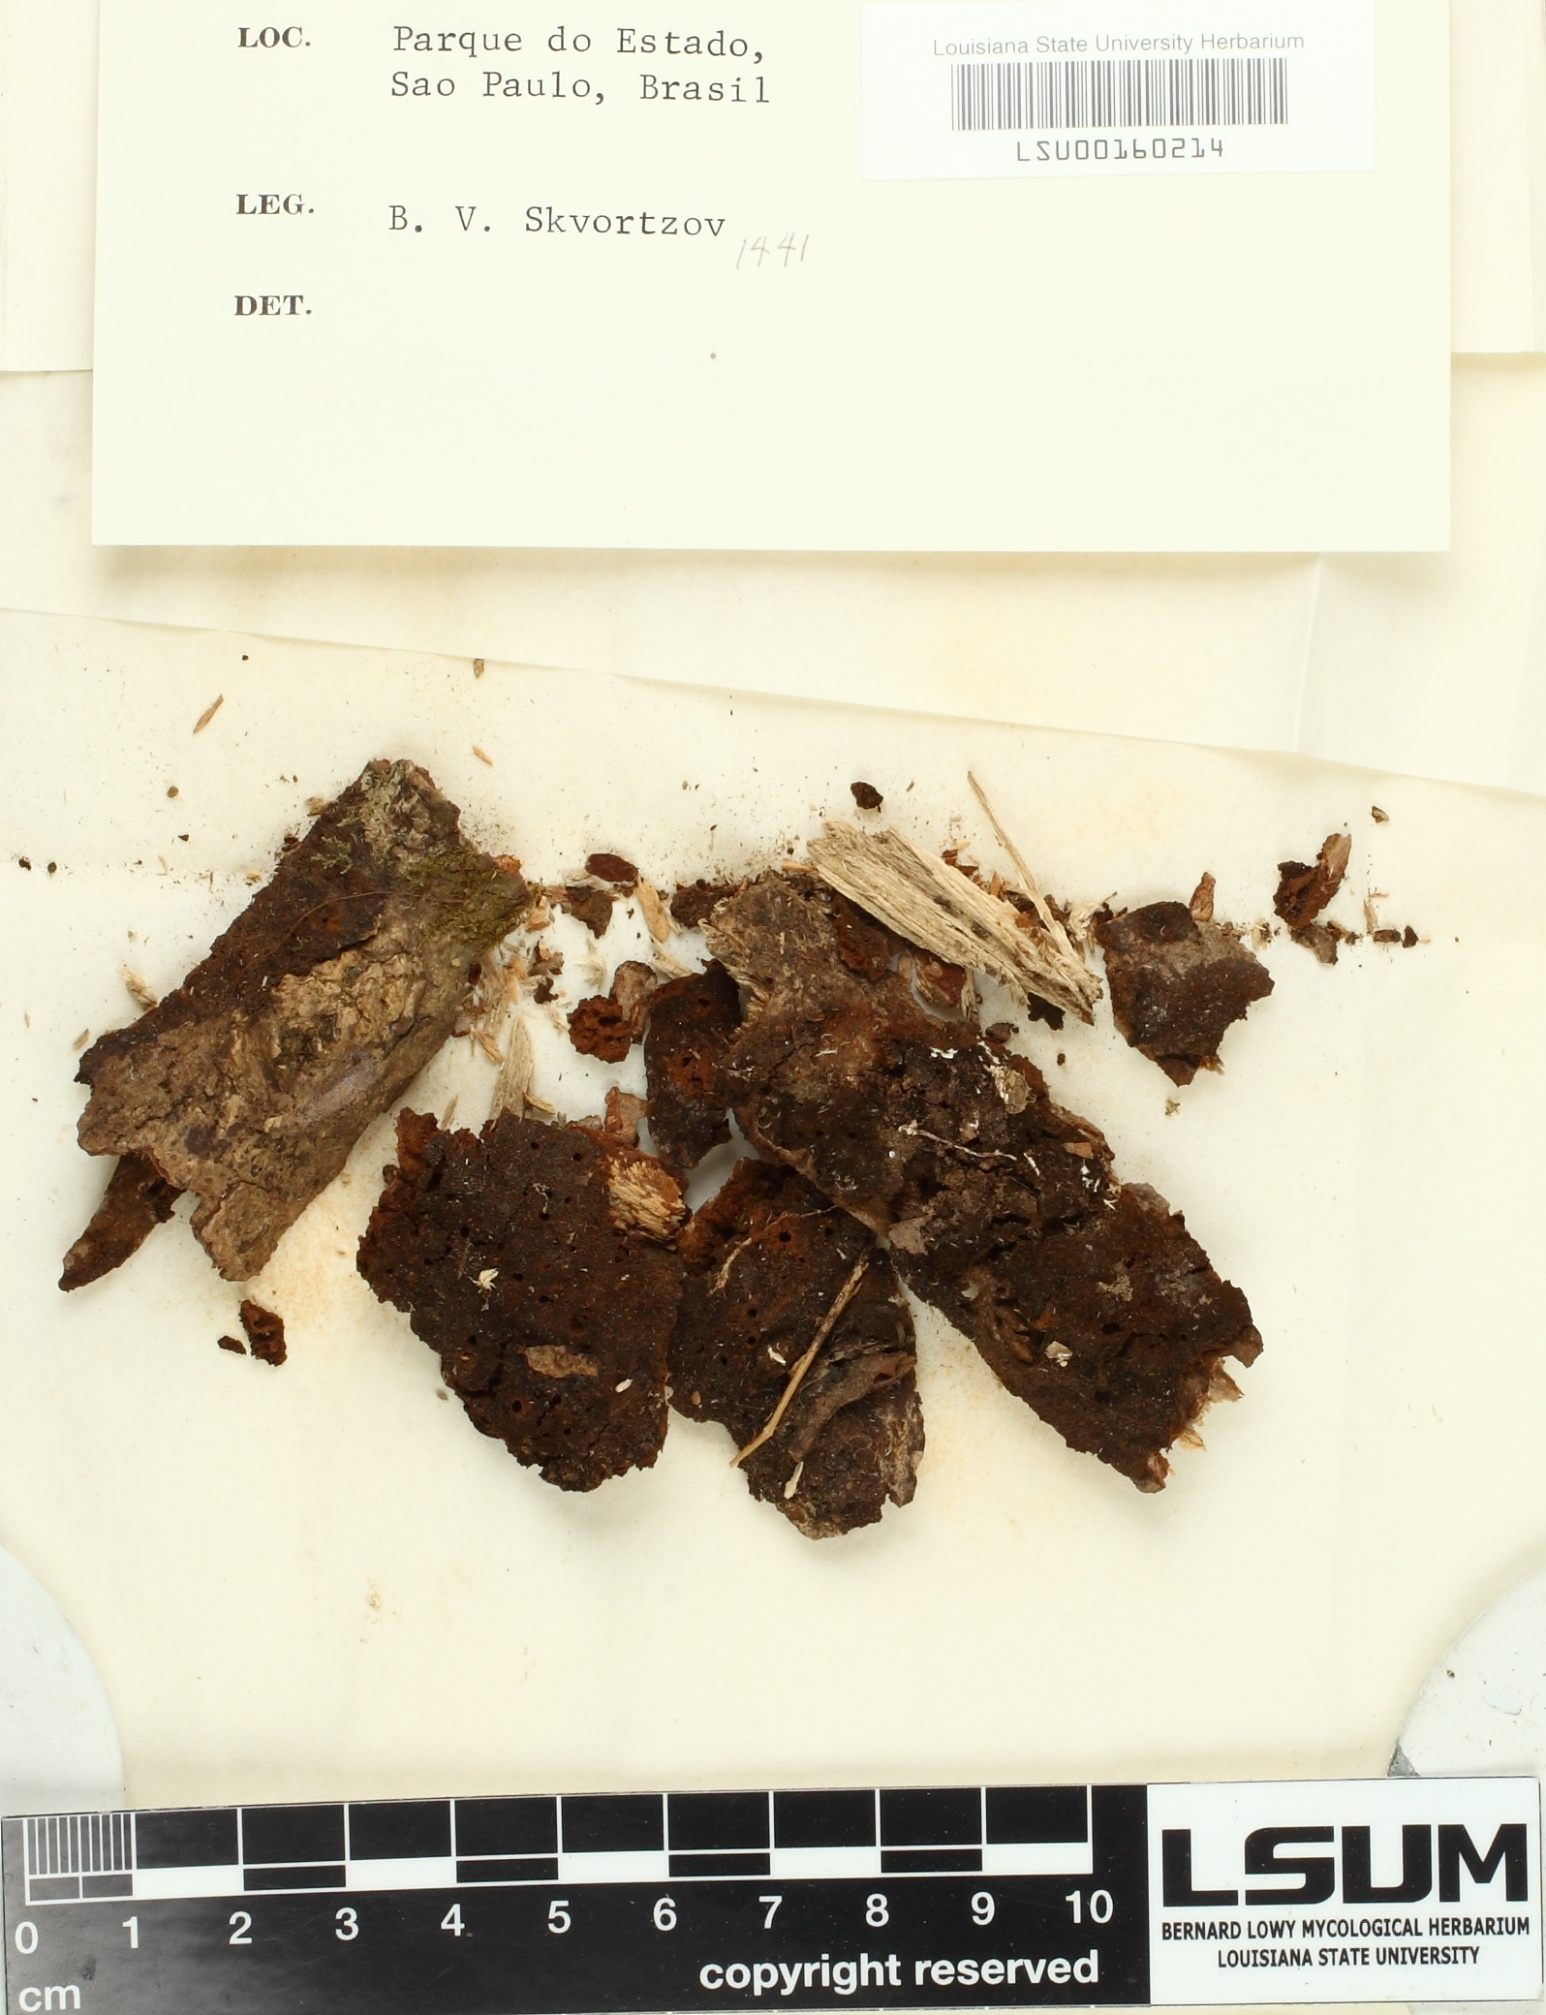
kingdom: Fungi
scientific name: Fungi
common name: Fungi
